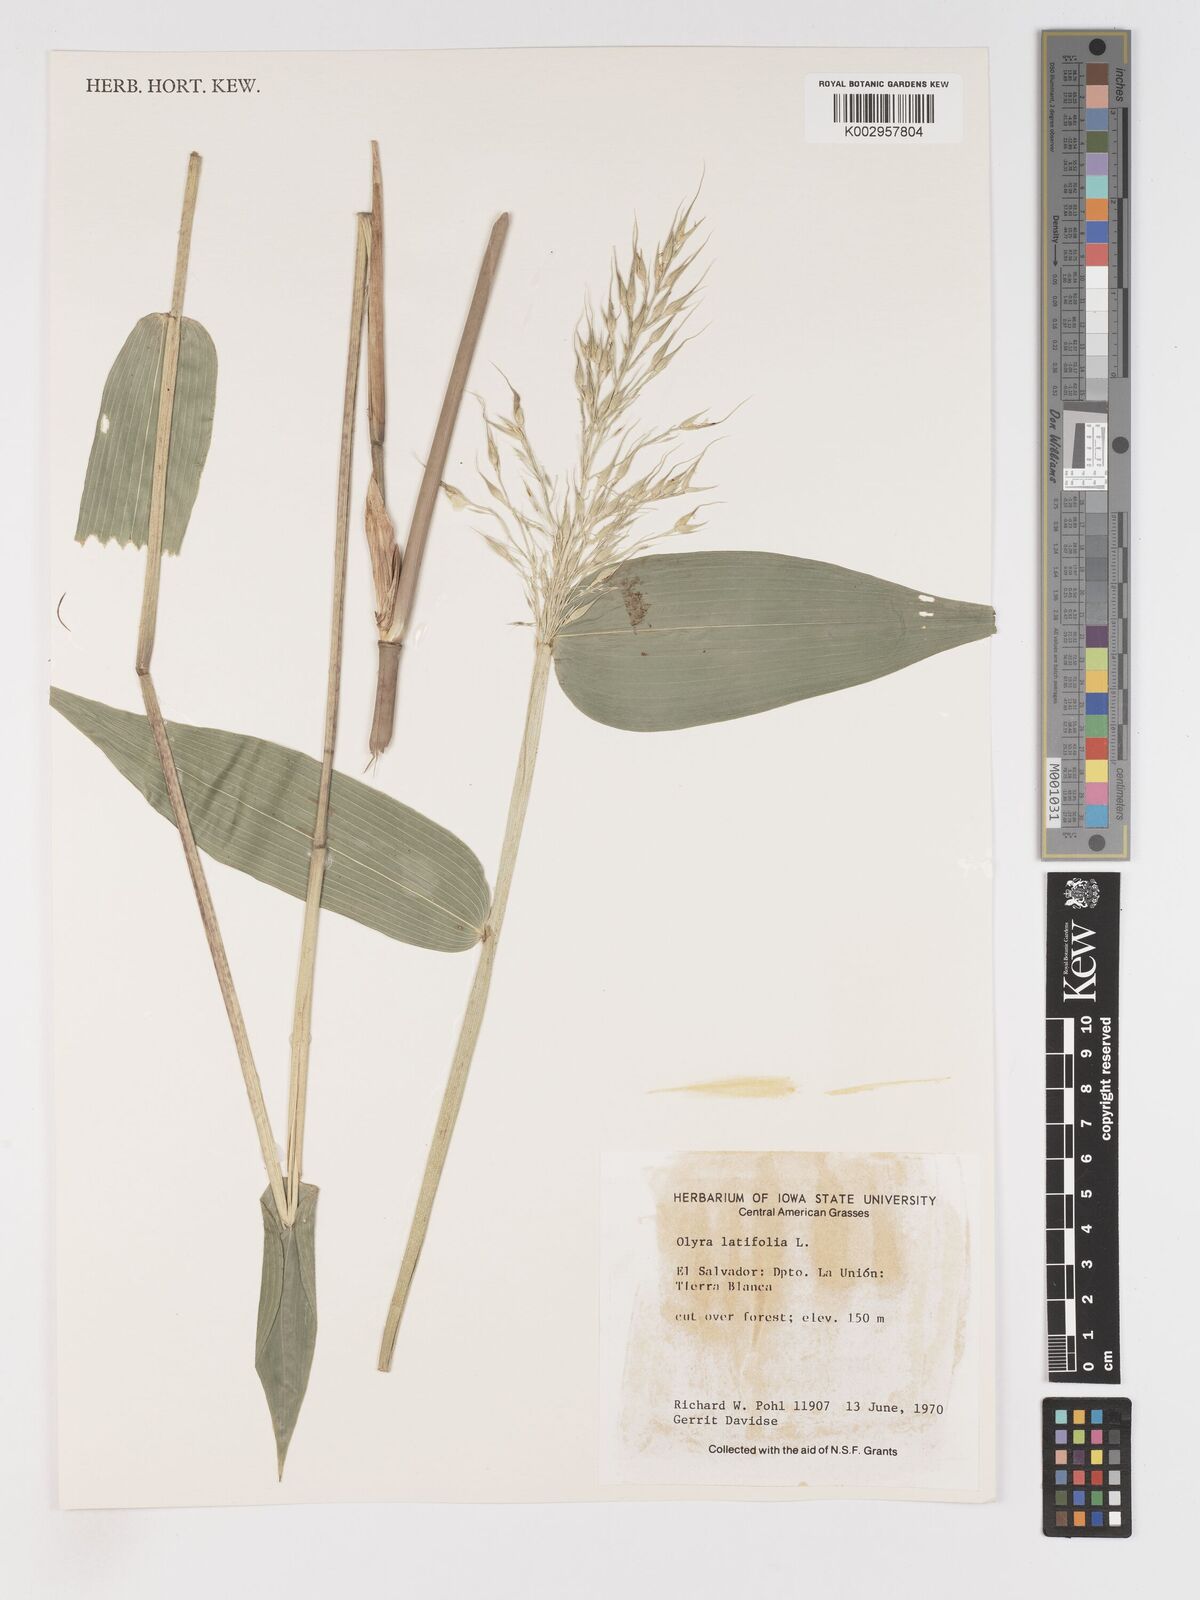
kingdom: Plantae
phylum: Tracheophyta
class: Liliopsida
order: Poales
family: Poaceae
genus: Olyra
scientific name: Olyra latifolia
